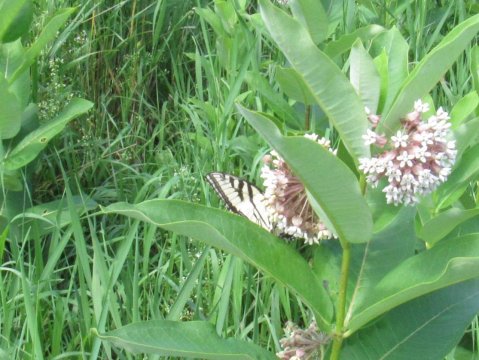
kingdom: Animalia
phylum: Arthropoda
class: Insecta
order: Lepidoptera
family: Papilionidae
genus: Pterourus
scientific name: Pterourus
